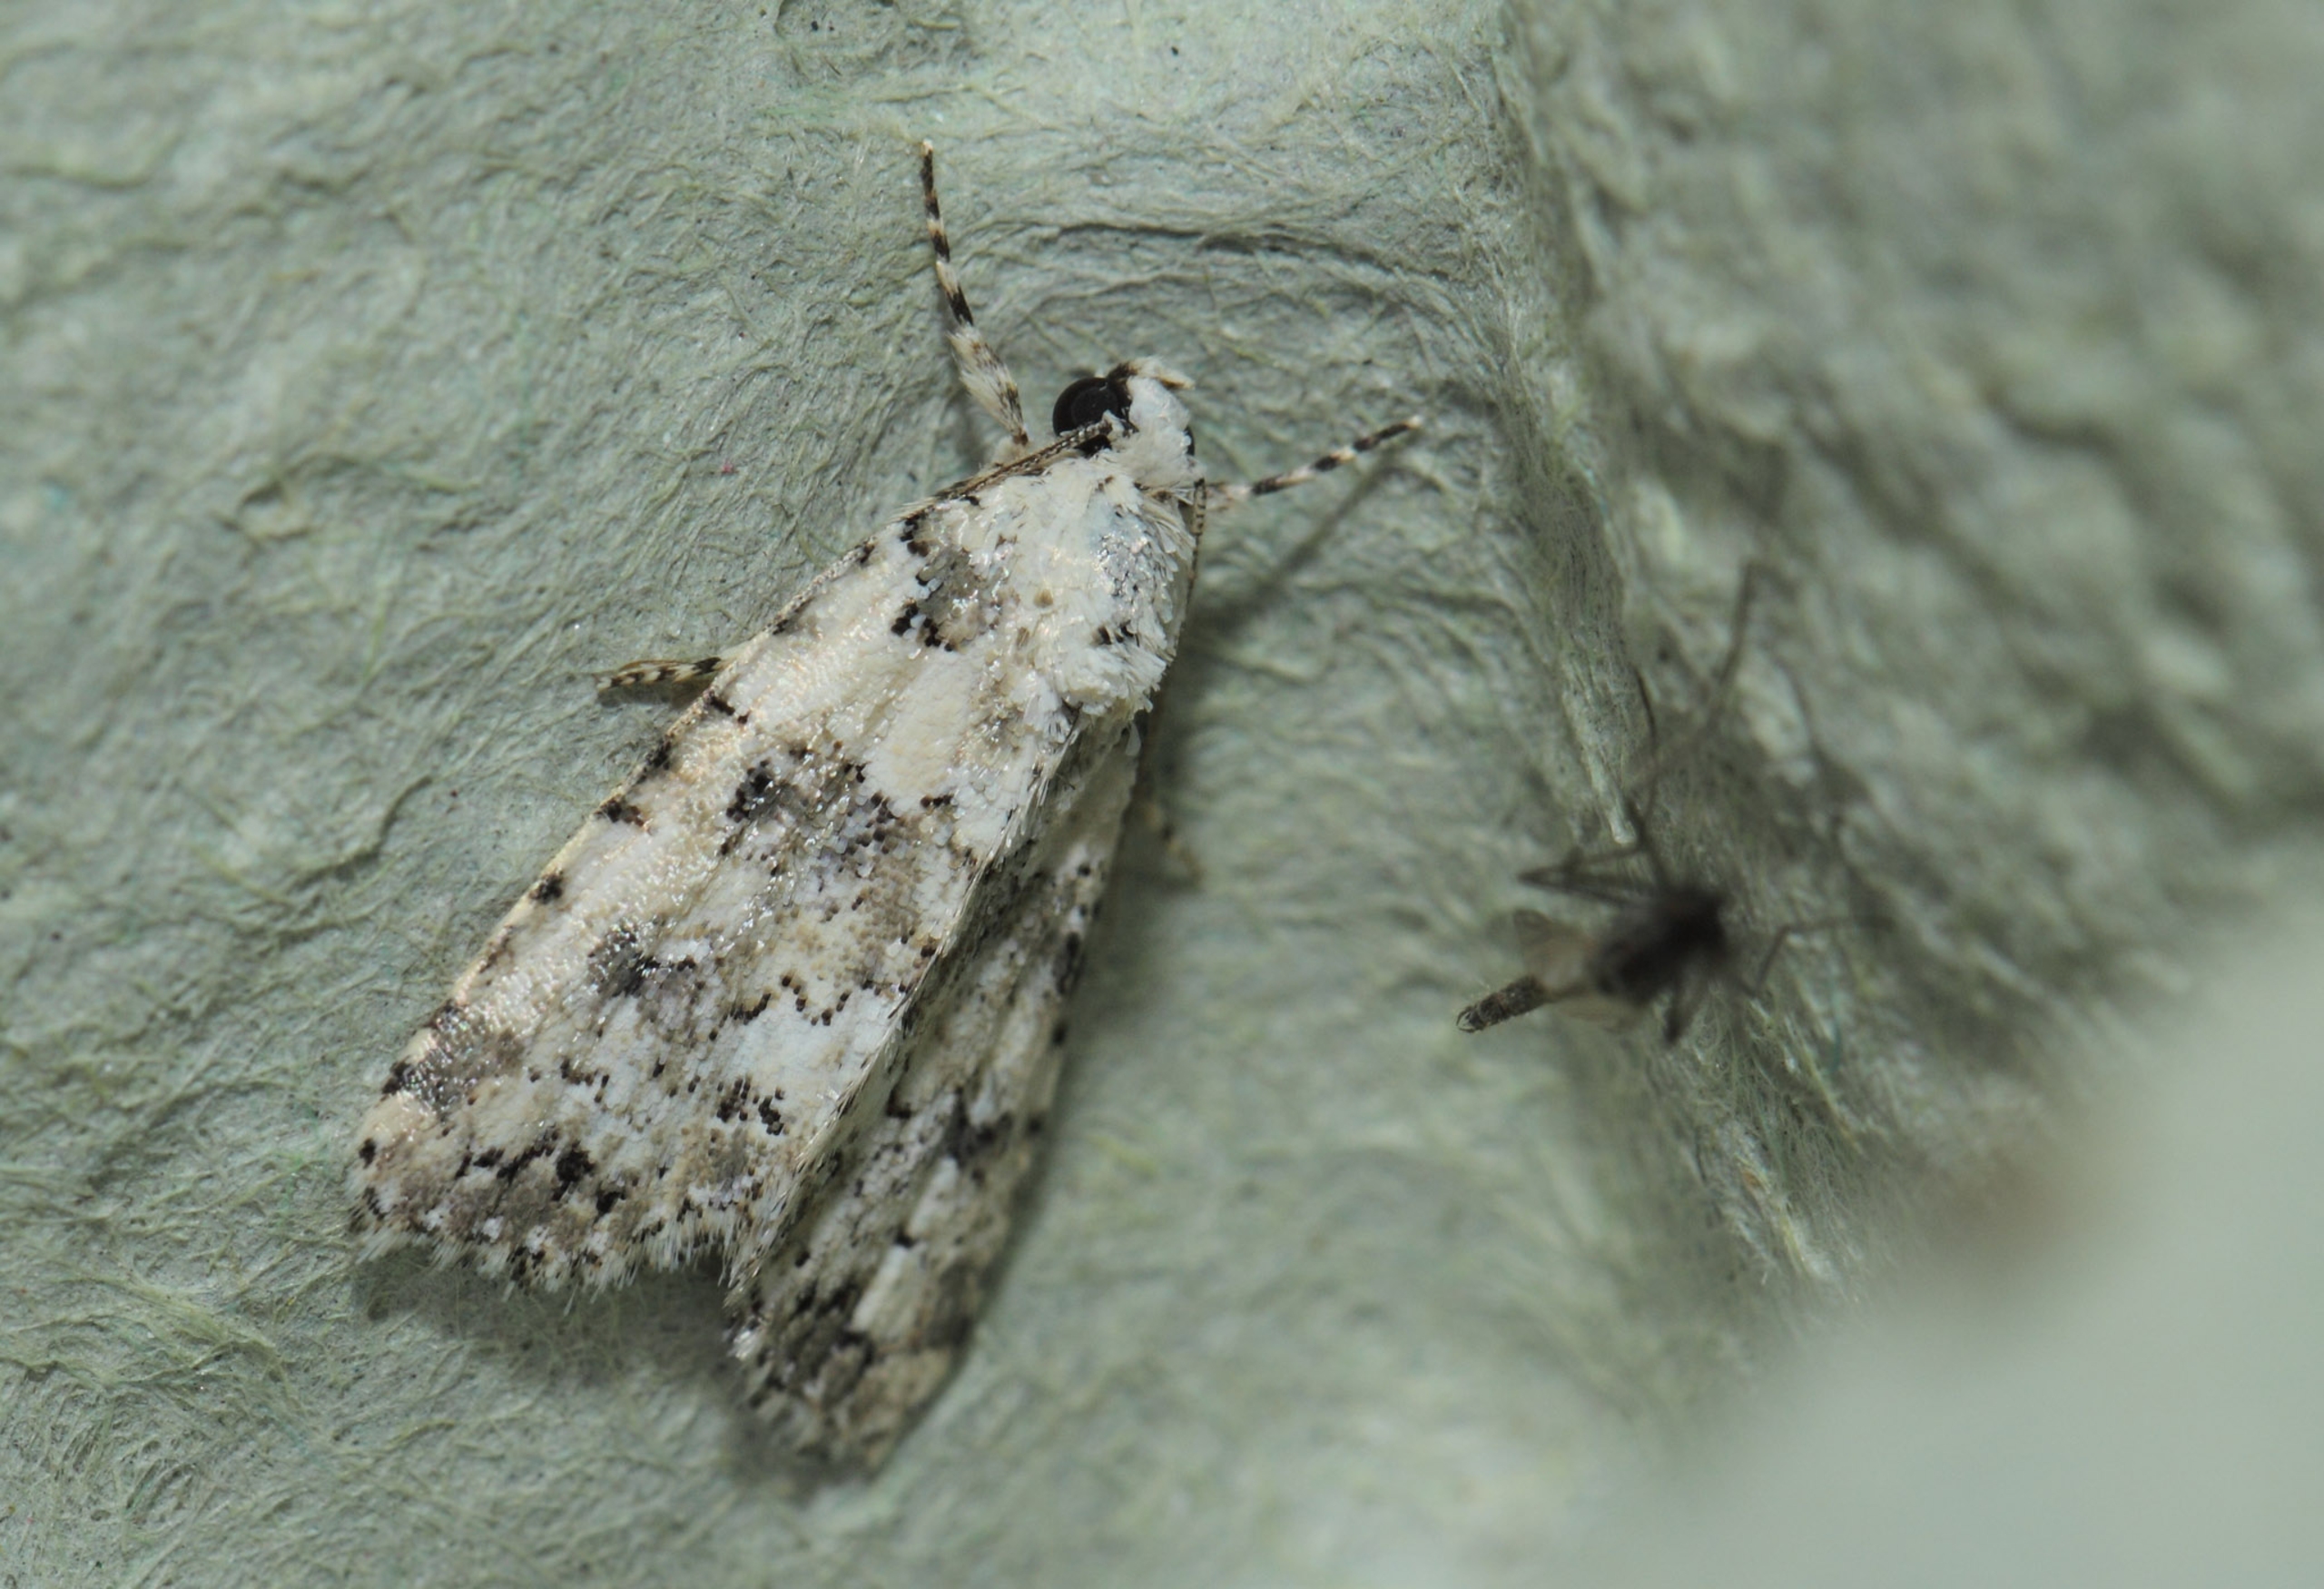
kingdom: Animalia
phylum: Arthropoda
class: Insecta
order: Lepidoptera
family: Noctuidae
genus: Bryophila
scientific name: Bryophila domestica
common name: Hus lav-ugle
